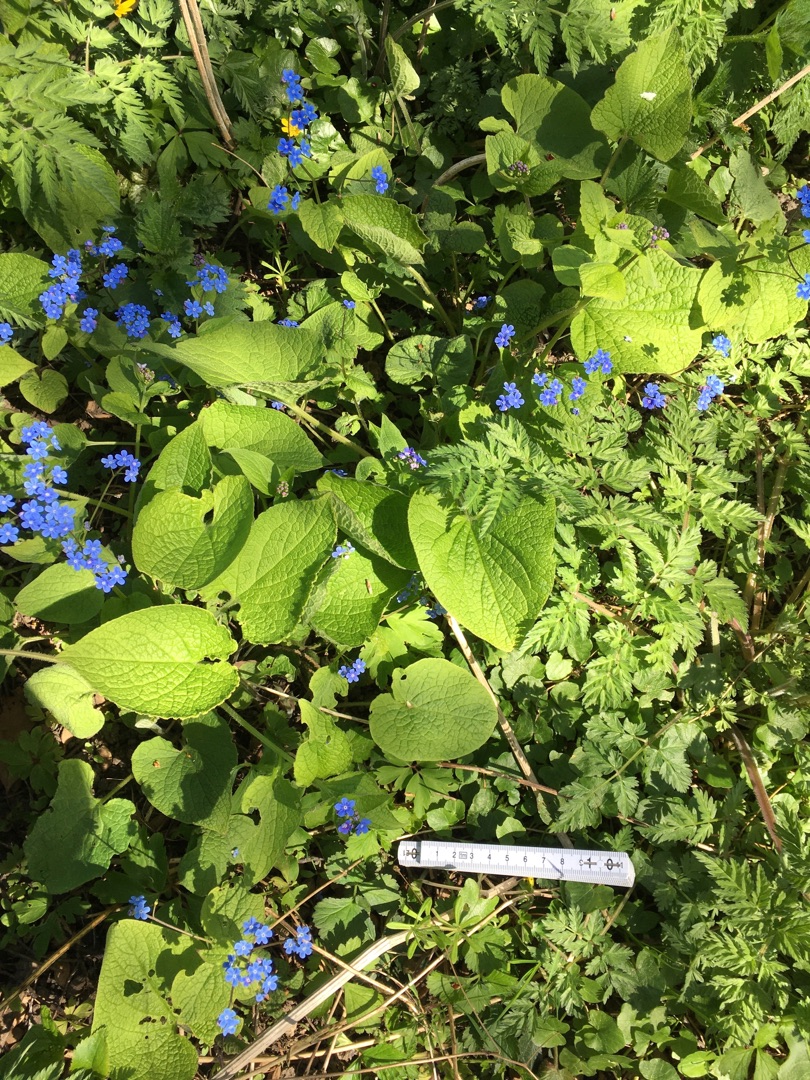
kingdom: Plantae
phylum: Tracheophyta
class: Magnoliopsida
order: Boraginales
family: Boraginaceae
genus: Brunnera
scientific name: Brunnera macrophylla
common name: Kærmindesøster
